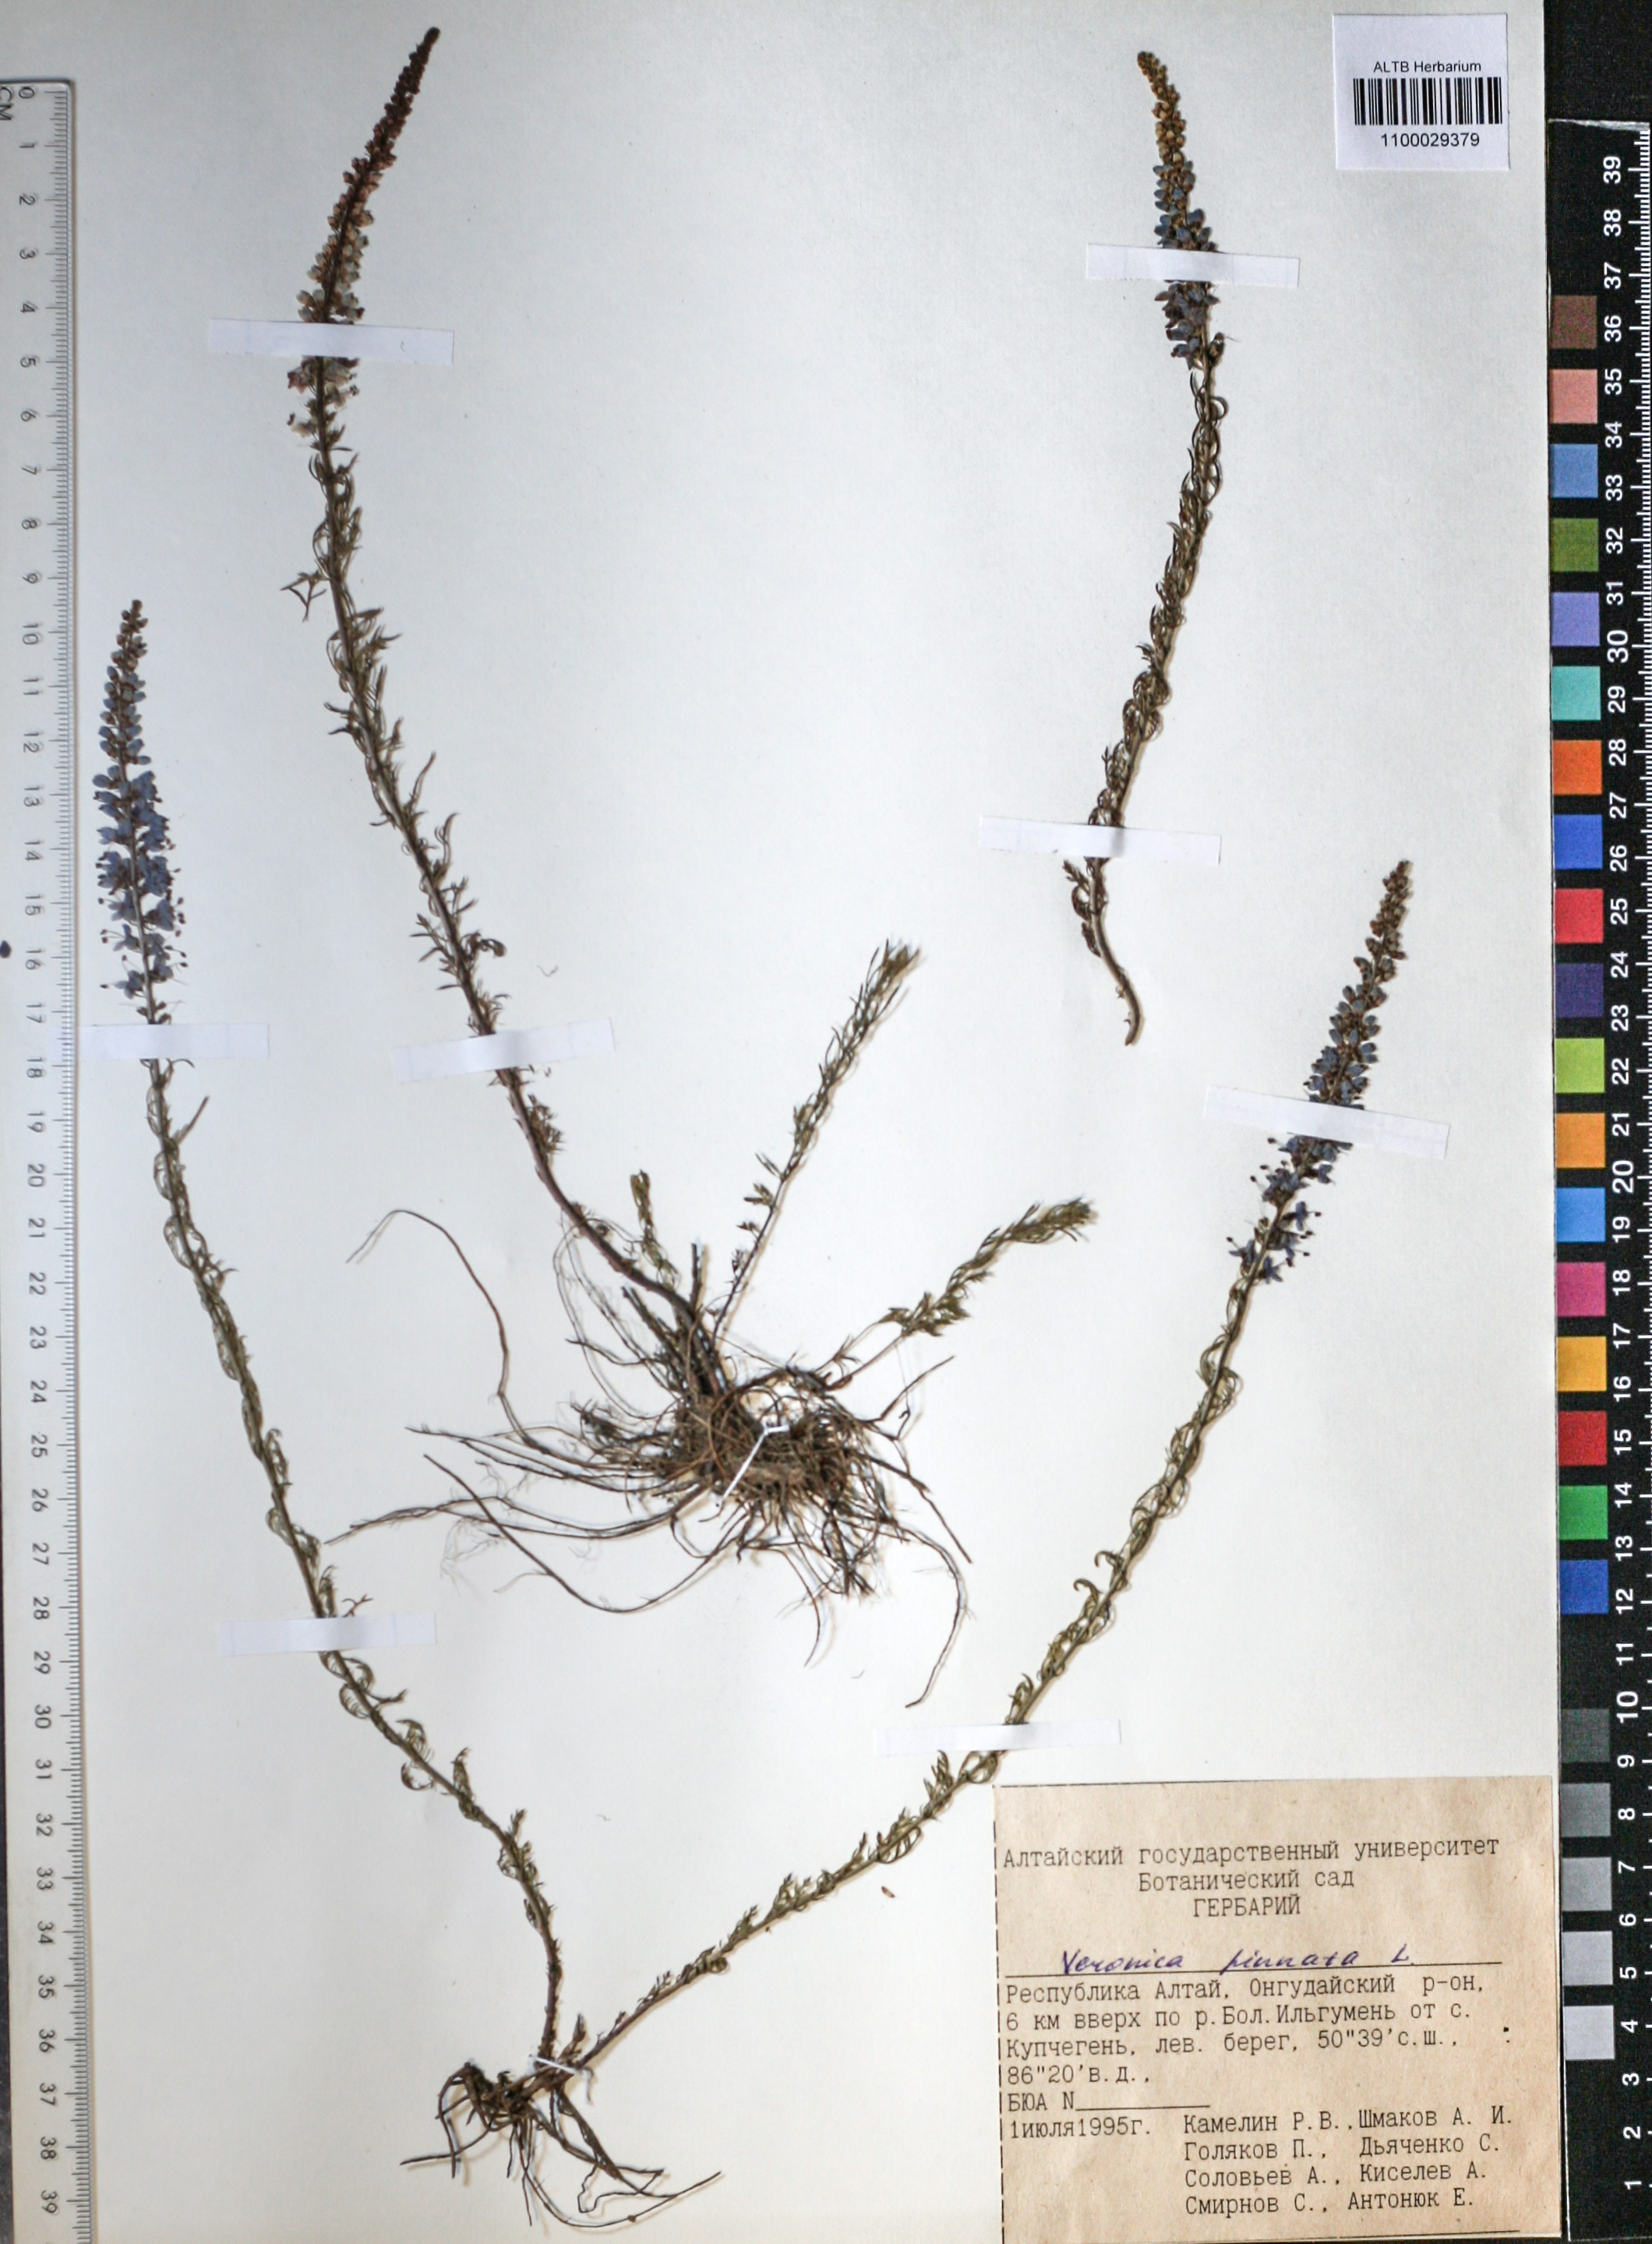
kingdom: Plantae
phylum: Tracheophyta
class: Magnoliopsida
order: Lamiales
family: Plantaginaceae
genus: Veronica
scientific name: Veronica pinnata
